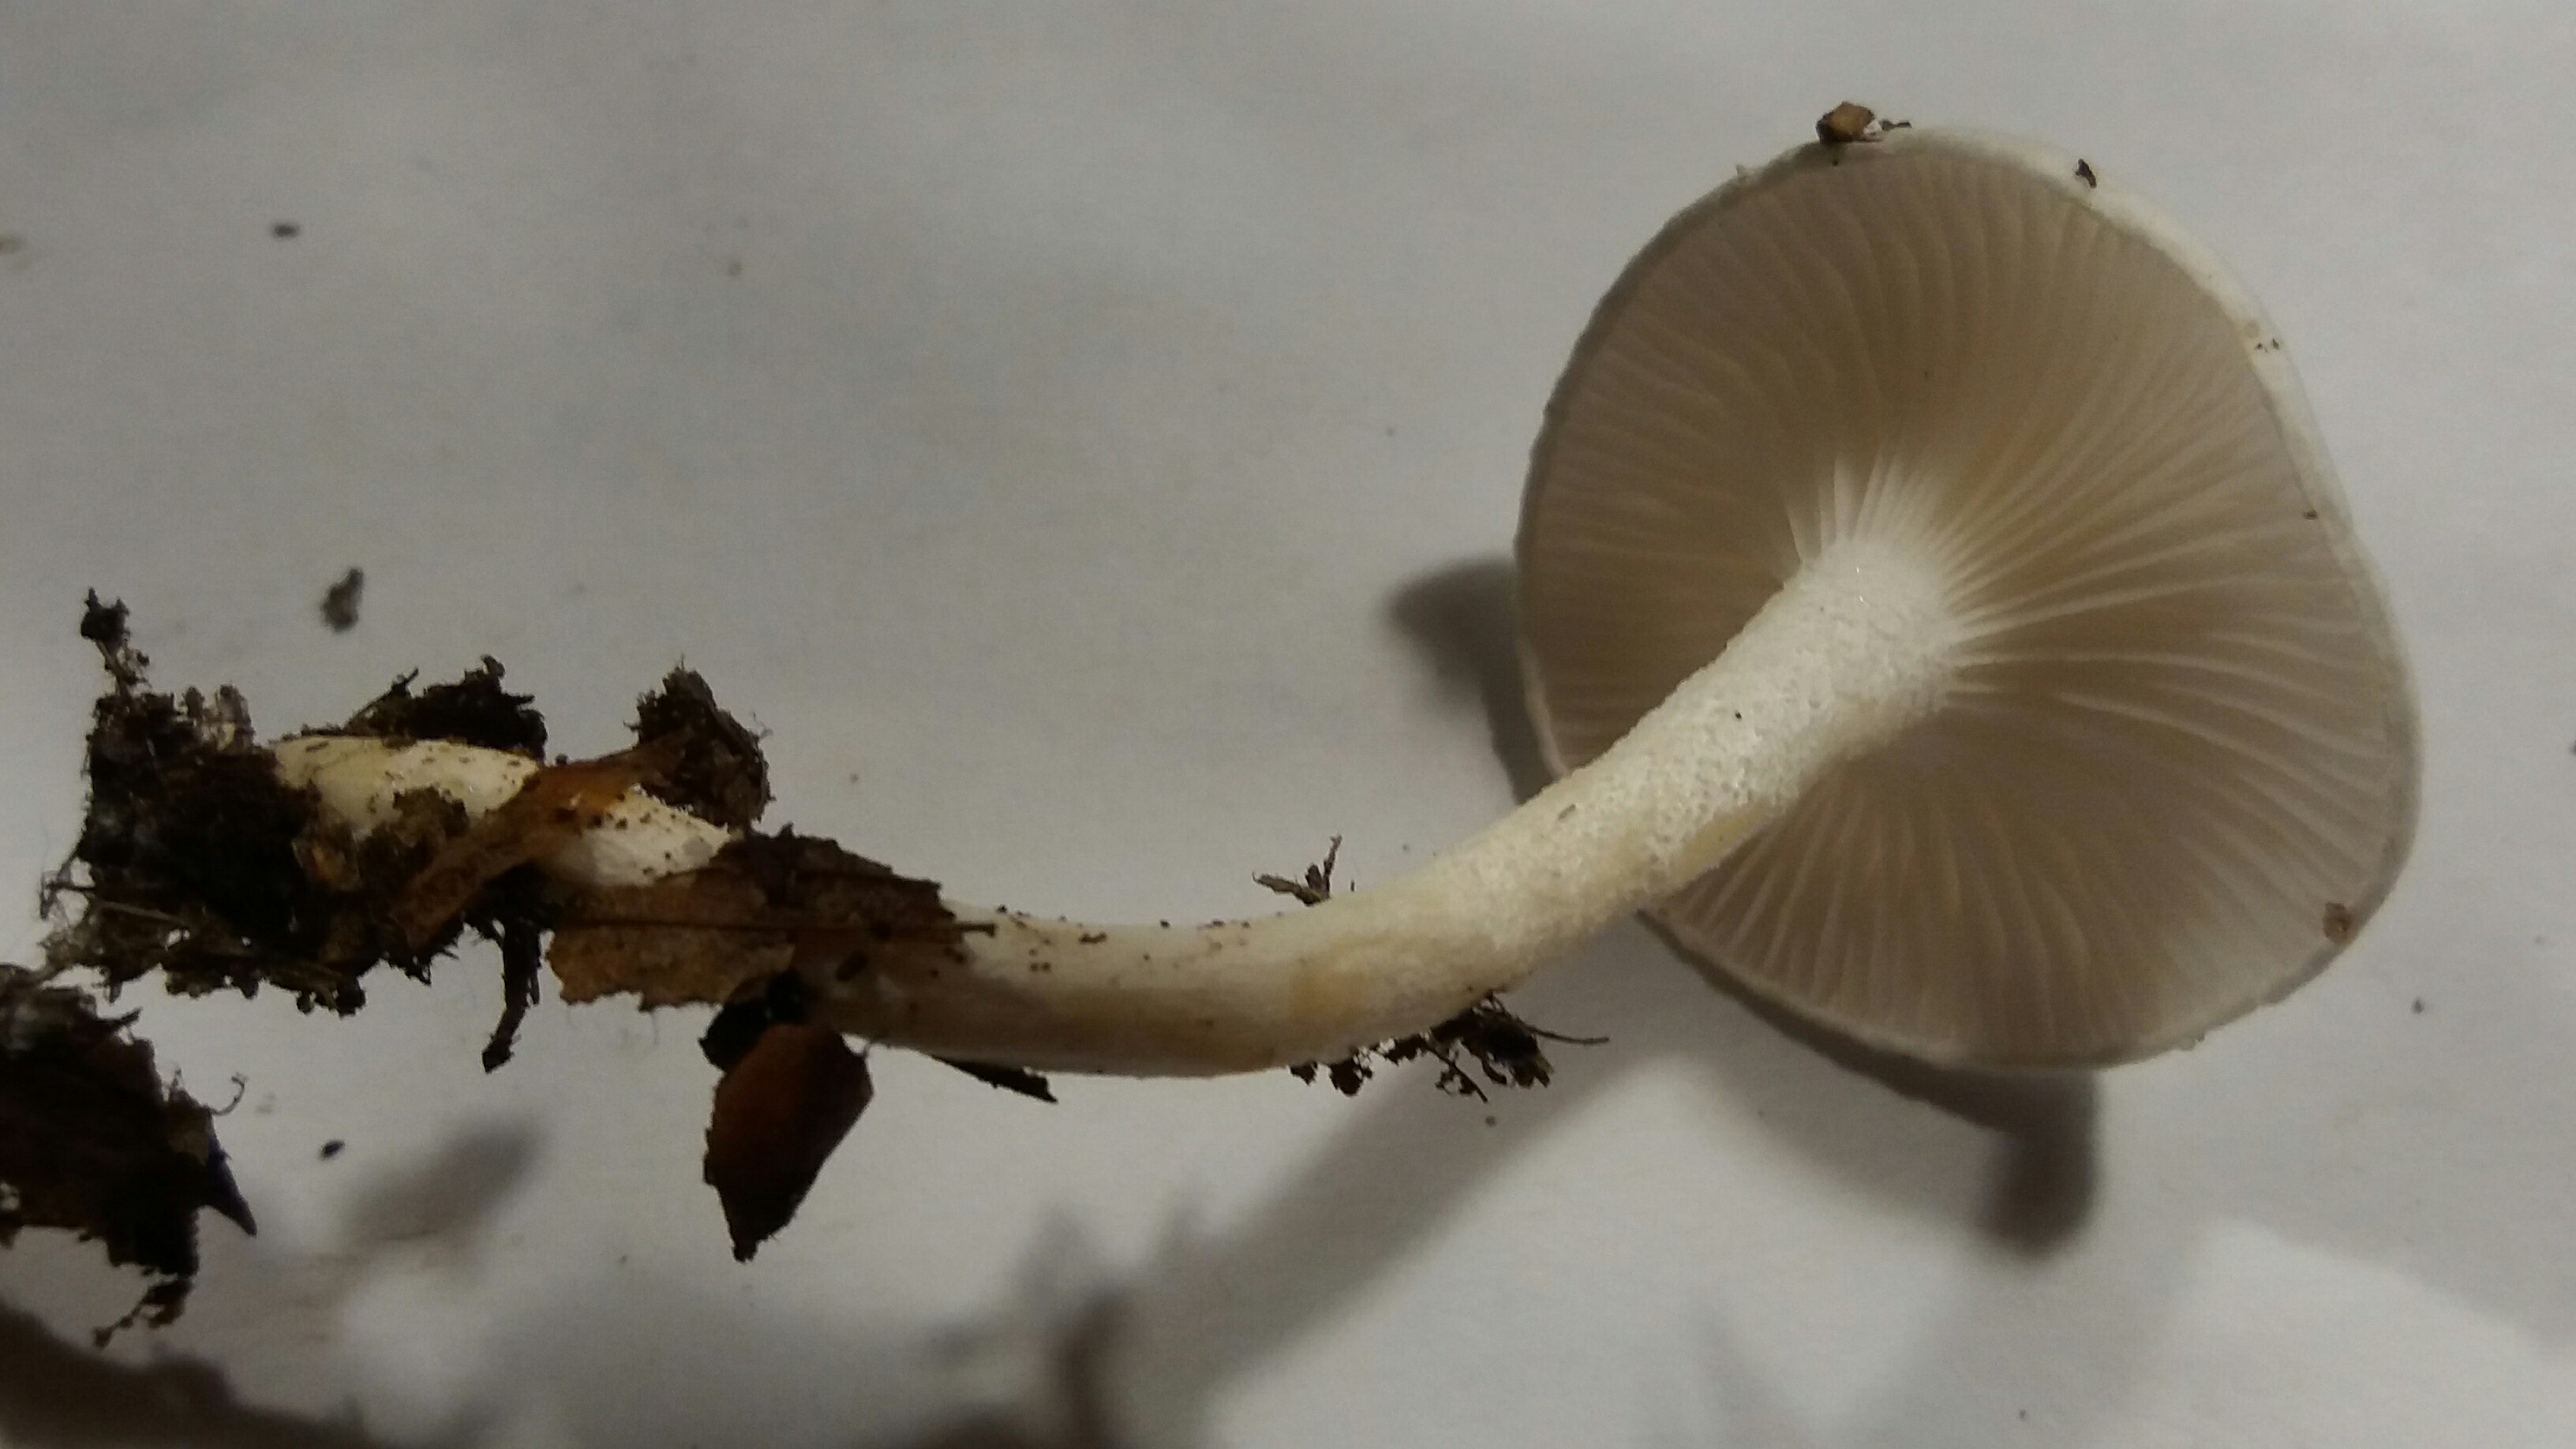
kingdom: Fungi
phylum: Basidiomycota
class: Agaricomycetes
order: Agaricales
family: Hygrophoraceae
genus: Hygrophorus
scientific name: Hygrophorus eburneus
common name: elfenbens-sneglehat
